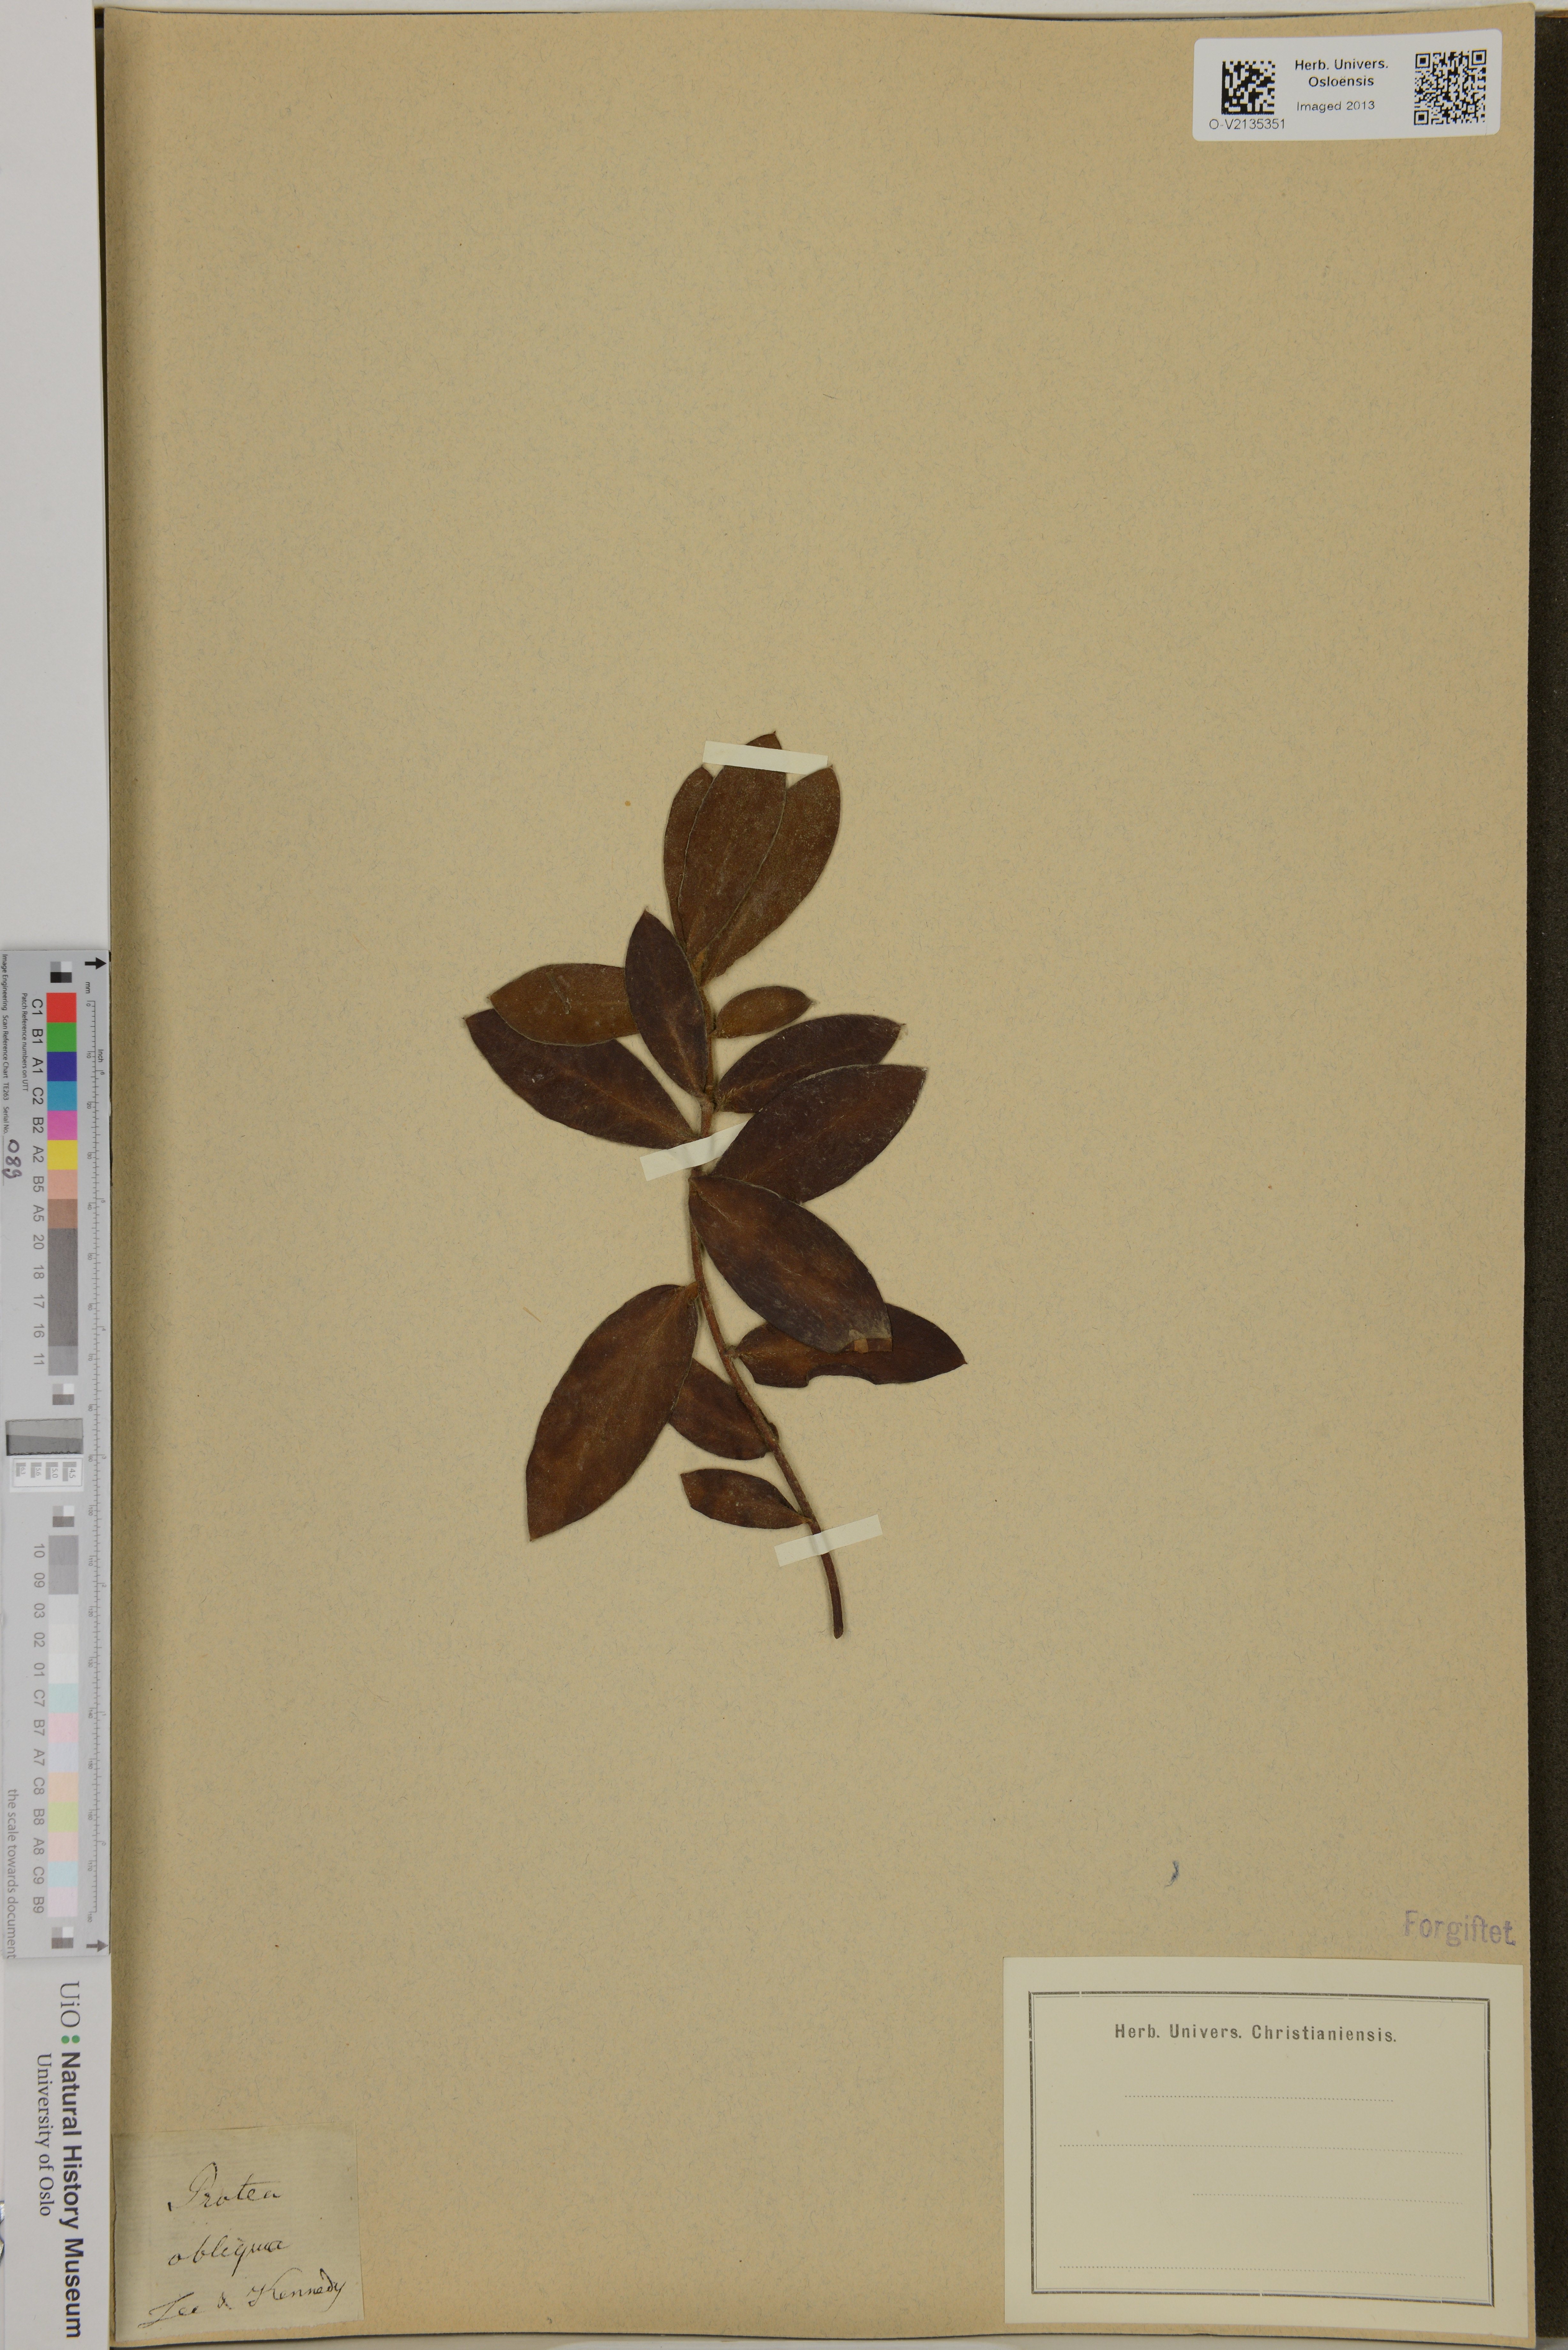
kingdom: Plantae
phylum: Tracheophyta
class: Magnoliopsida
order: Proteales
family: Proteaceae
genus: Protea
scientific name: Protea obliqua
